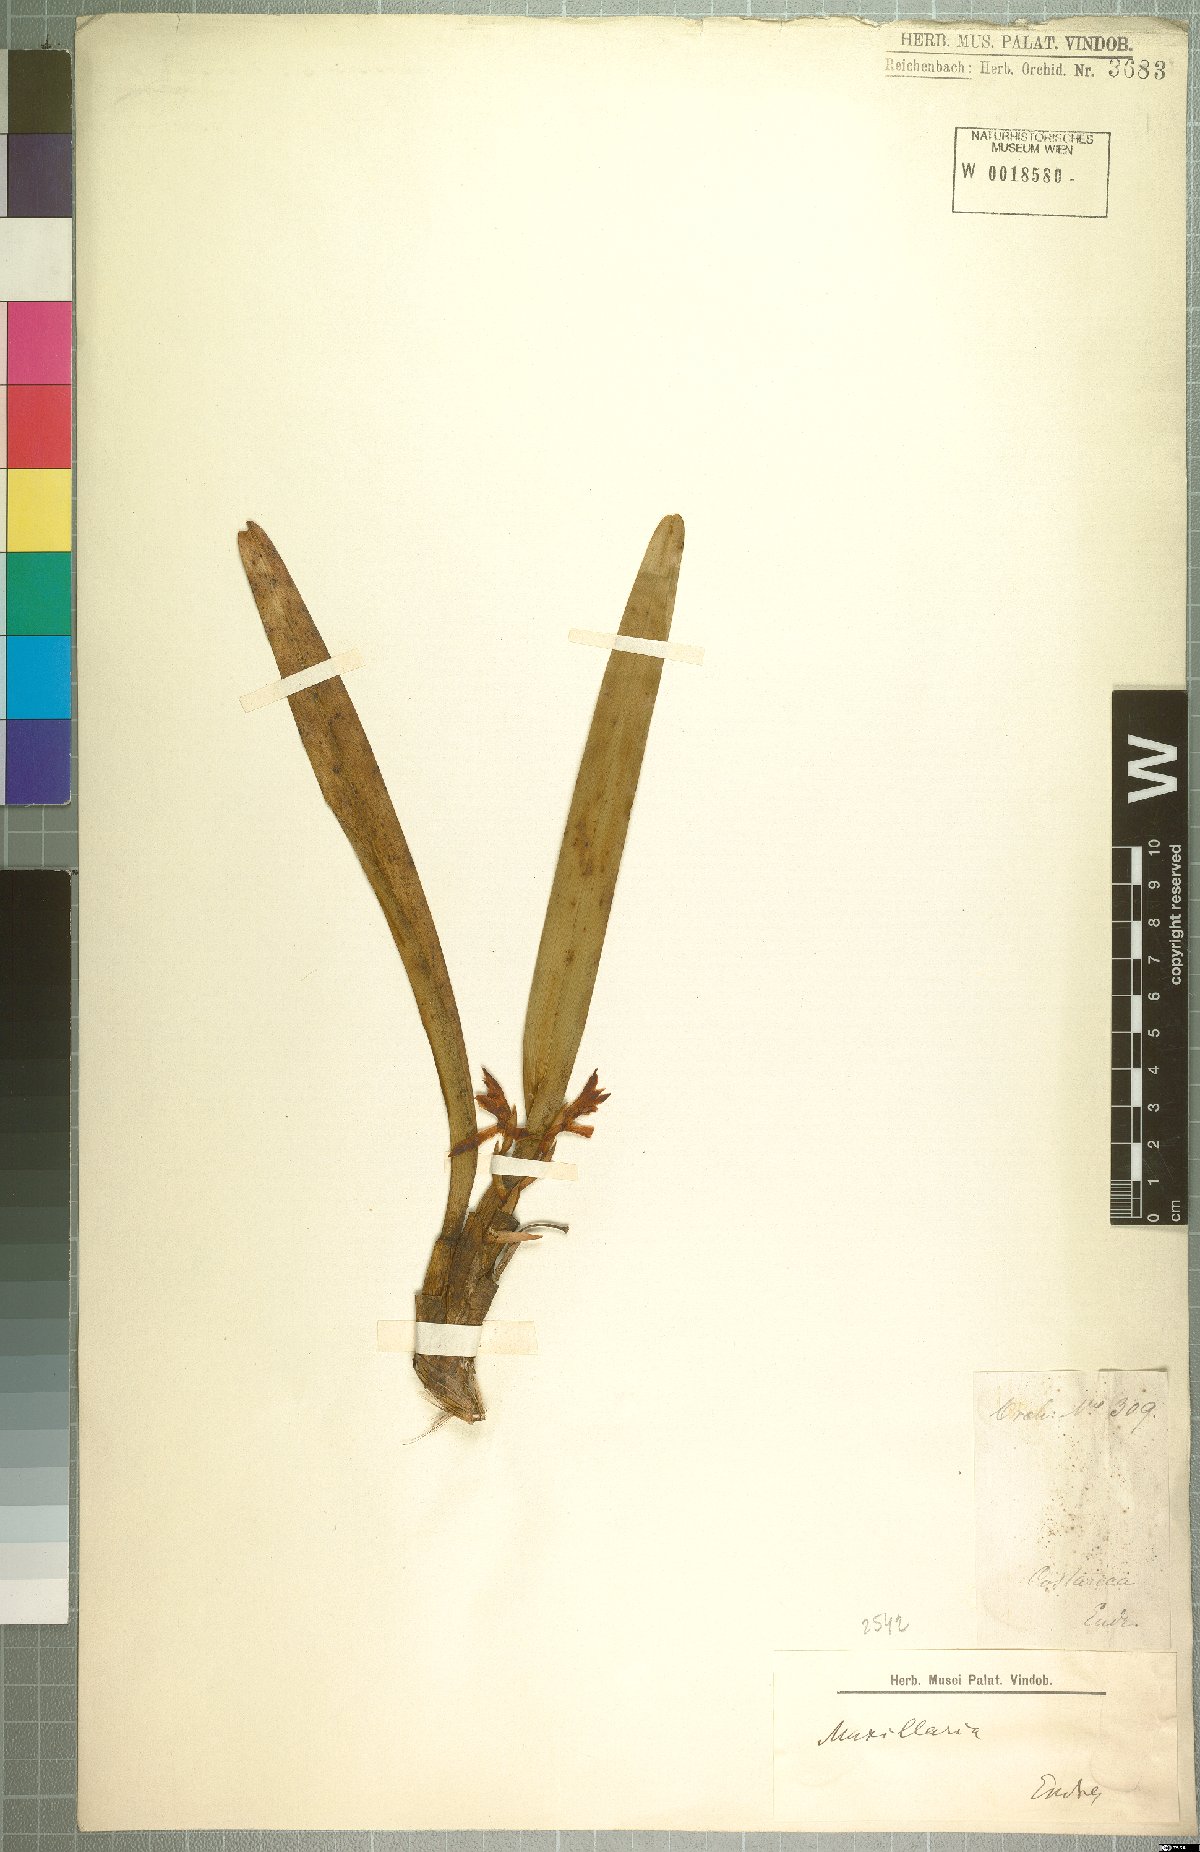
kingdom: Plantae
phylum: Tracheophyta
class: Liliopsida
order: Asparagales
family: Orchidaceae
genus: Maxillaria
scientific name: Maxillaria
